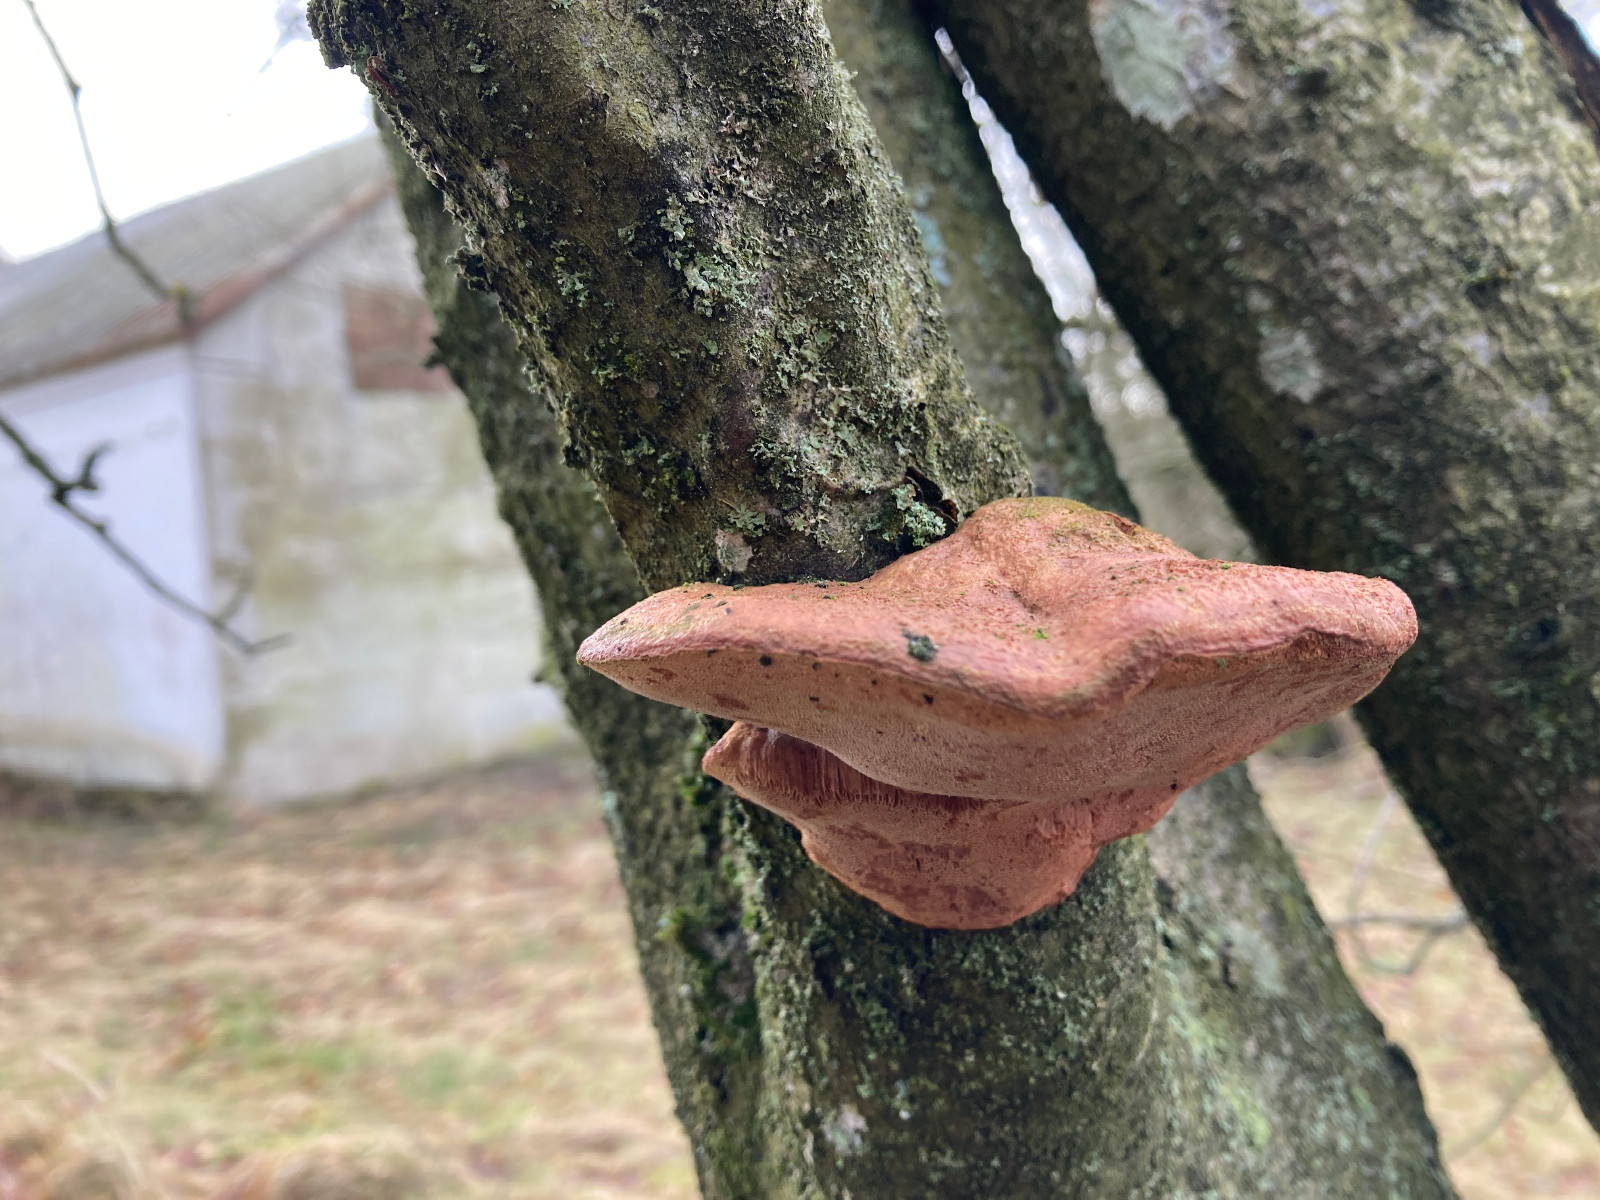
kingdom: Fungi
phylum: Basidiomycota
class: Agaricomycetes
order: Polyporales
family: Phanerochaetaceae
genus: Hapalopilus
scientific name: Hapalopilus rutilans
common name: rødlig okkerporesvamp
